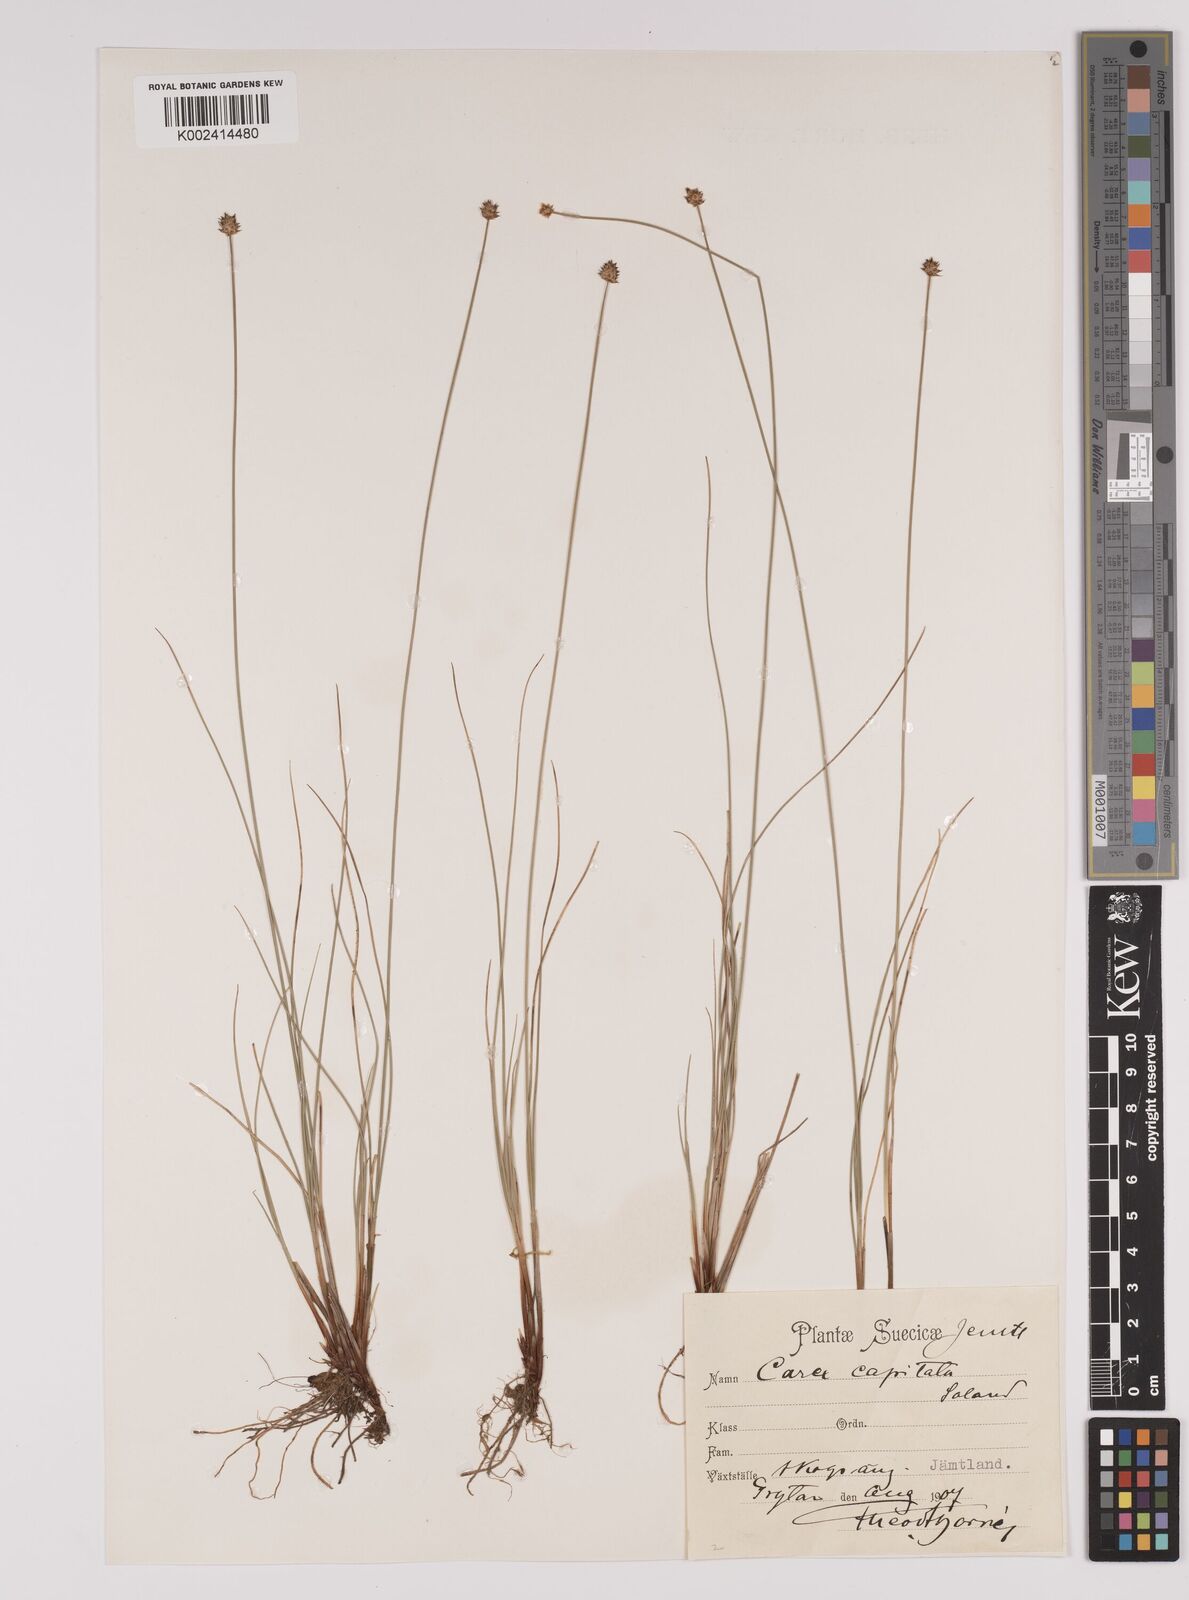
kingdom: Plantae
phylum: Tracheophyta
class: Liliopsida
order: Poales
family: Cyperaceae
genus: Carex
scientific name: Carex capitata
